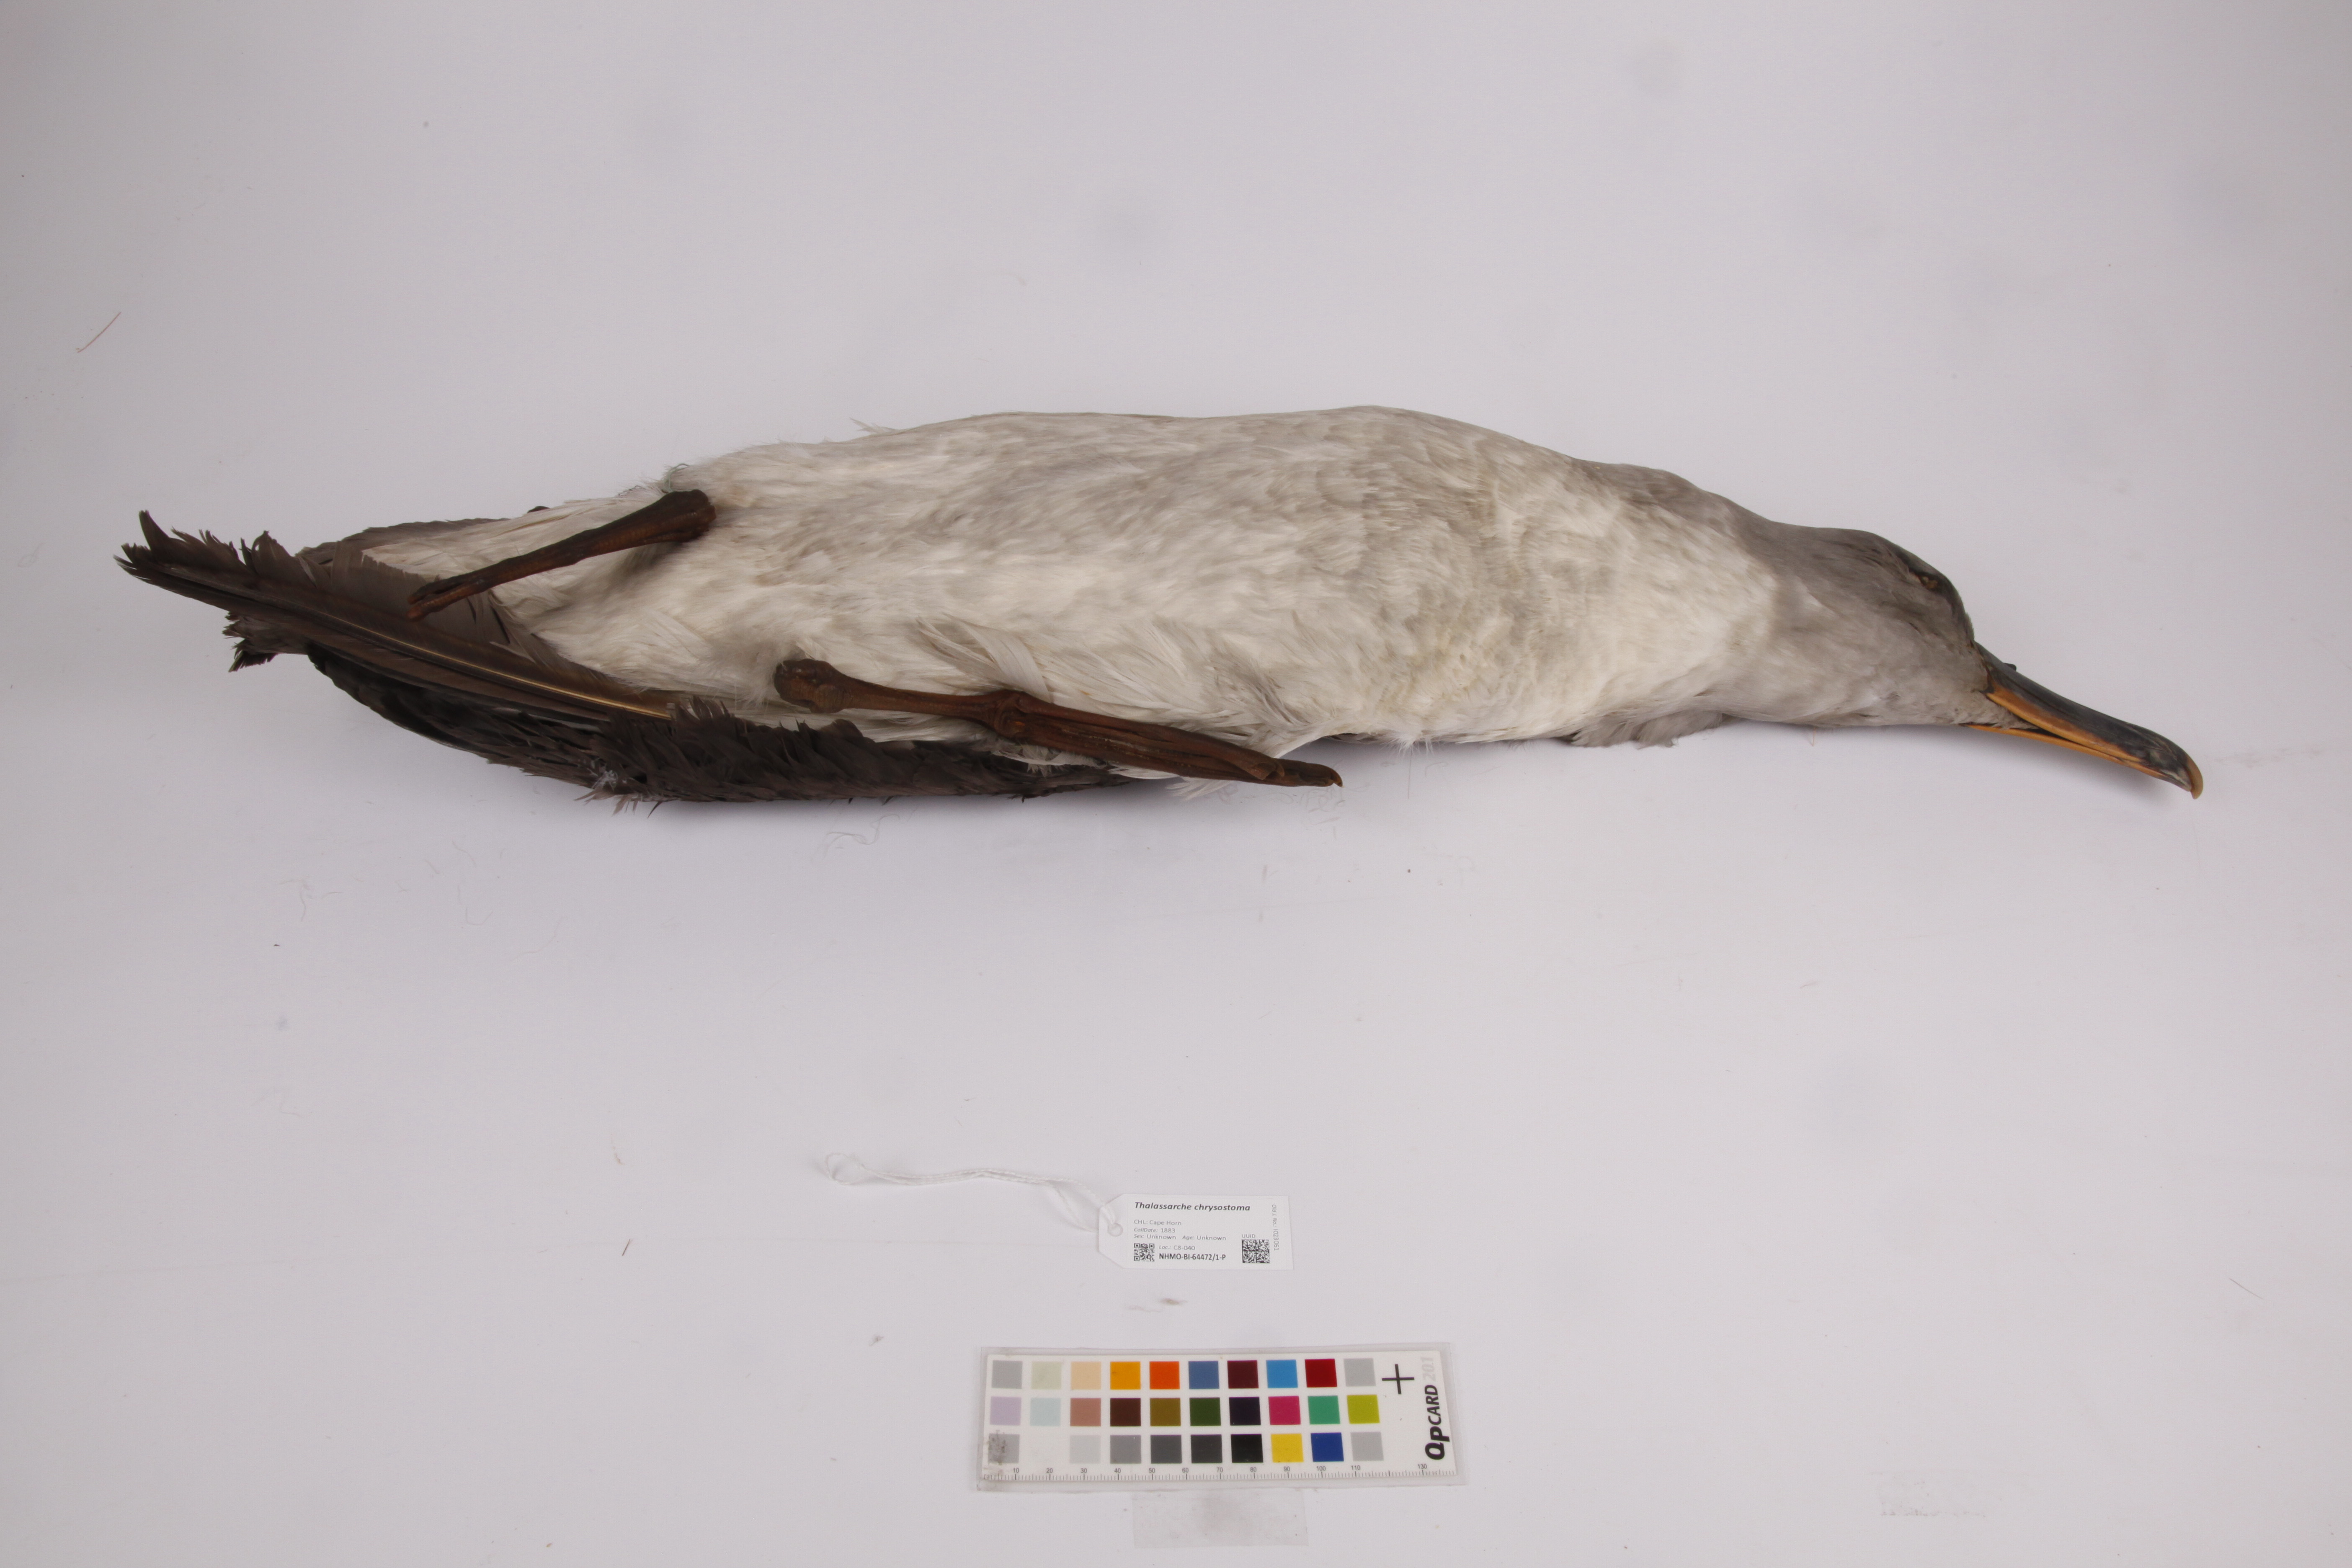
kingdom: Animalia
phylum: Chordata
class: Aves
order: Procellariiformes
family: Diomedeidae
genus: Thalassarche
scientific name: Thalassarche chrysostoma
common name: Grey-headed albatross
